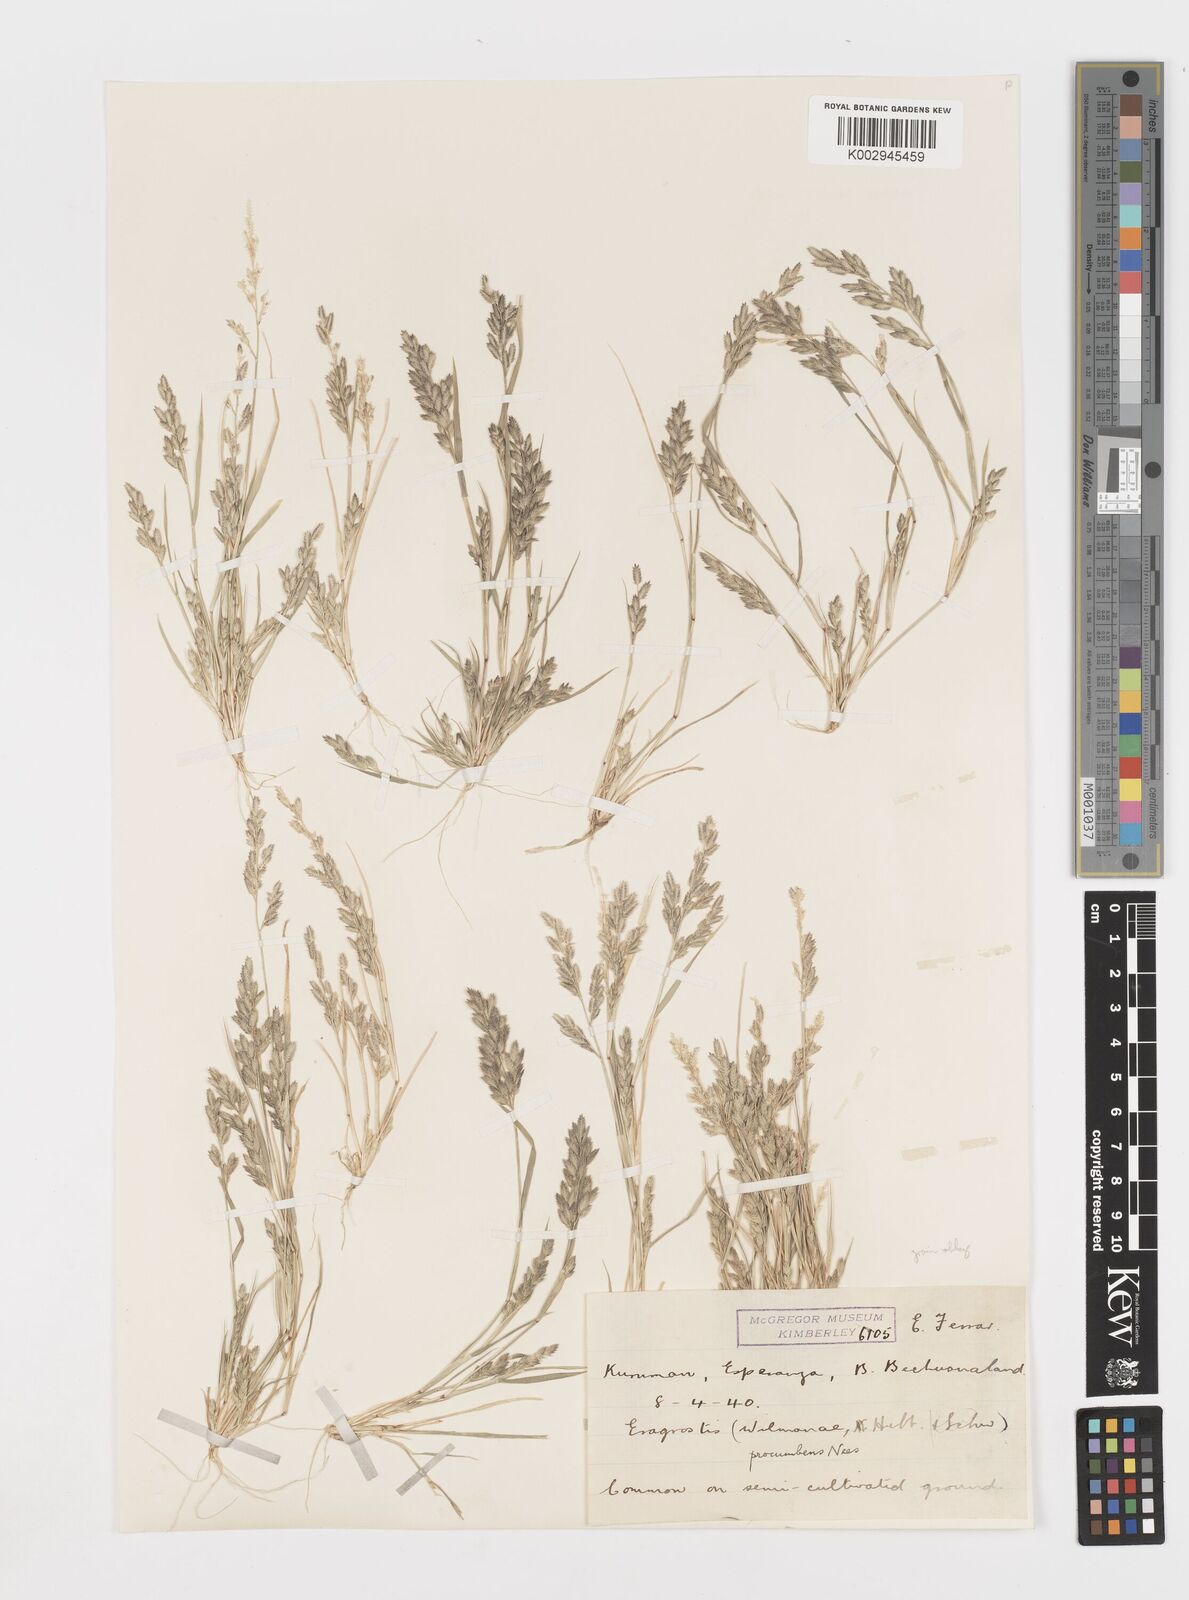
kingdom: Plantae
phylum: Tracheophyta
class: Liliopsida
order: Poales
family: Poaceae
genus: Eragrostis
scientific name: Eragrostis procumbens
